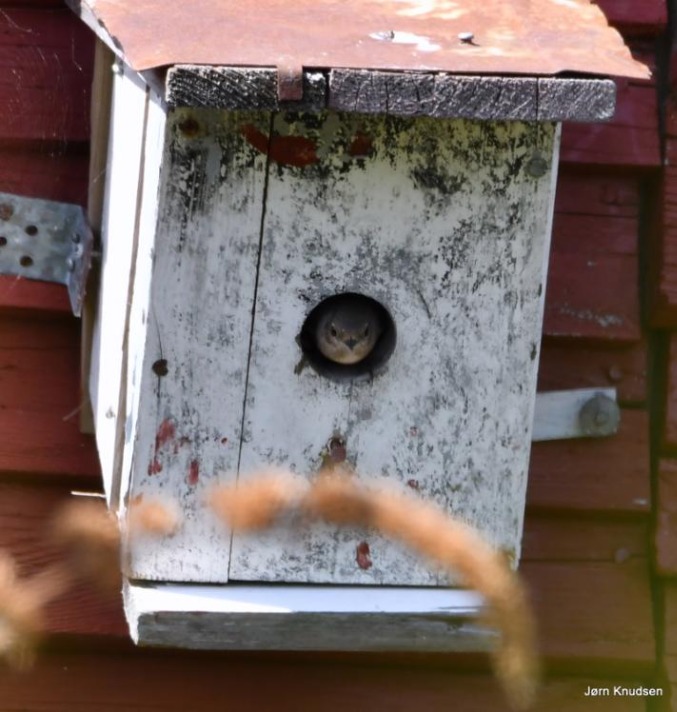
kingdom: Animalia
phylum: Chordata
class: Aves
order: Passeriformes
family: Muscicapidae
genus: Phoenicurus
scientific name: Phoenicurus phoenicurus
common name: Rødstjert
